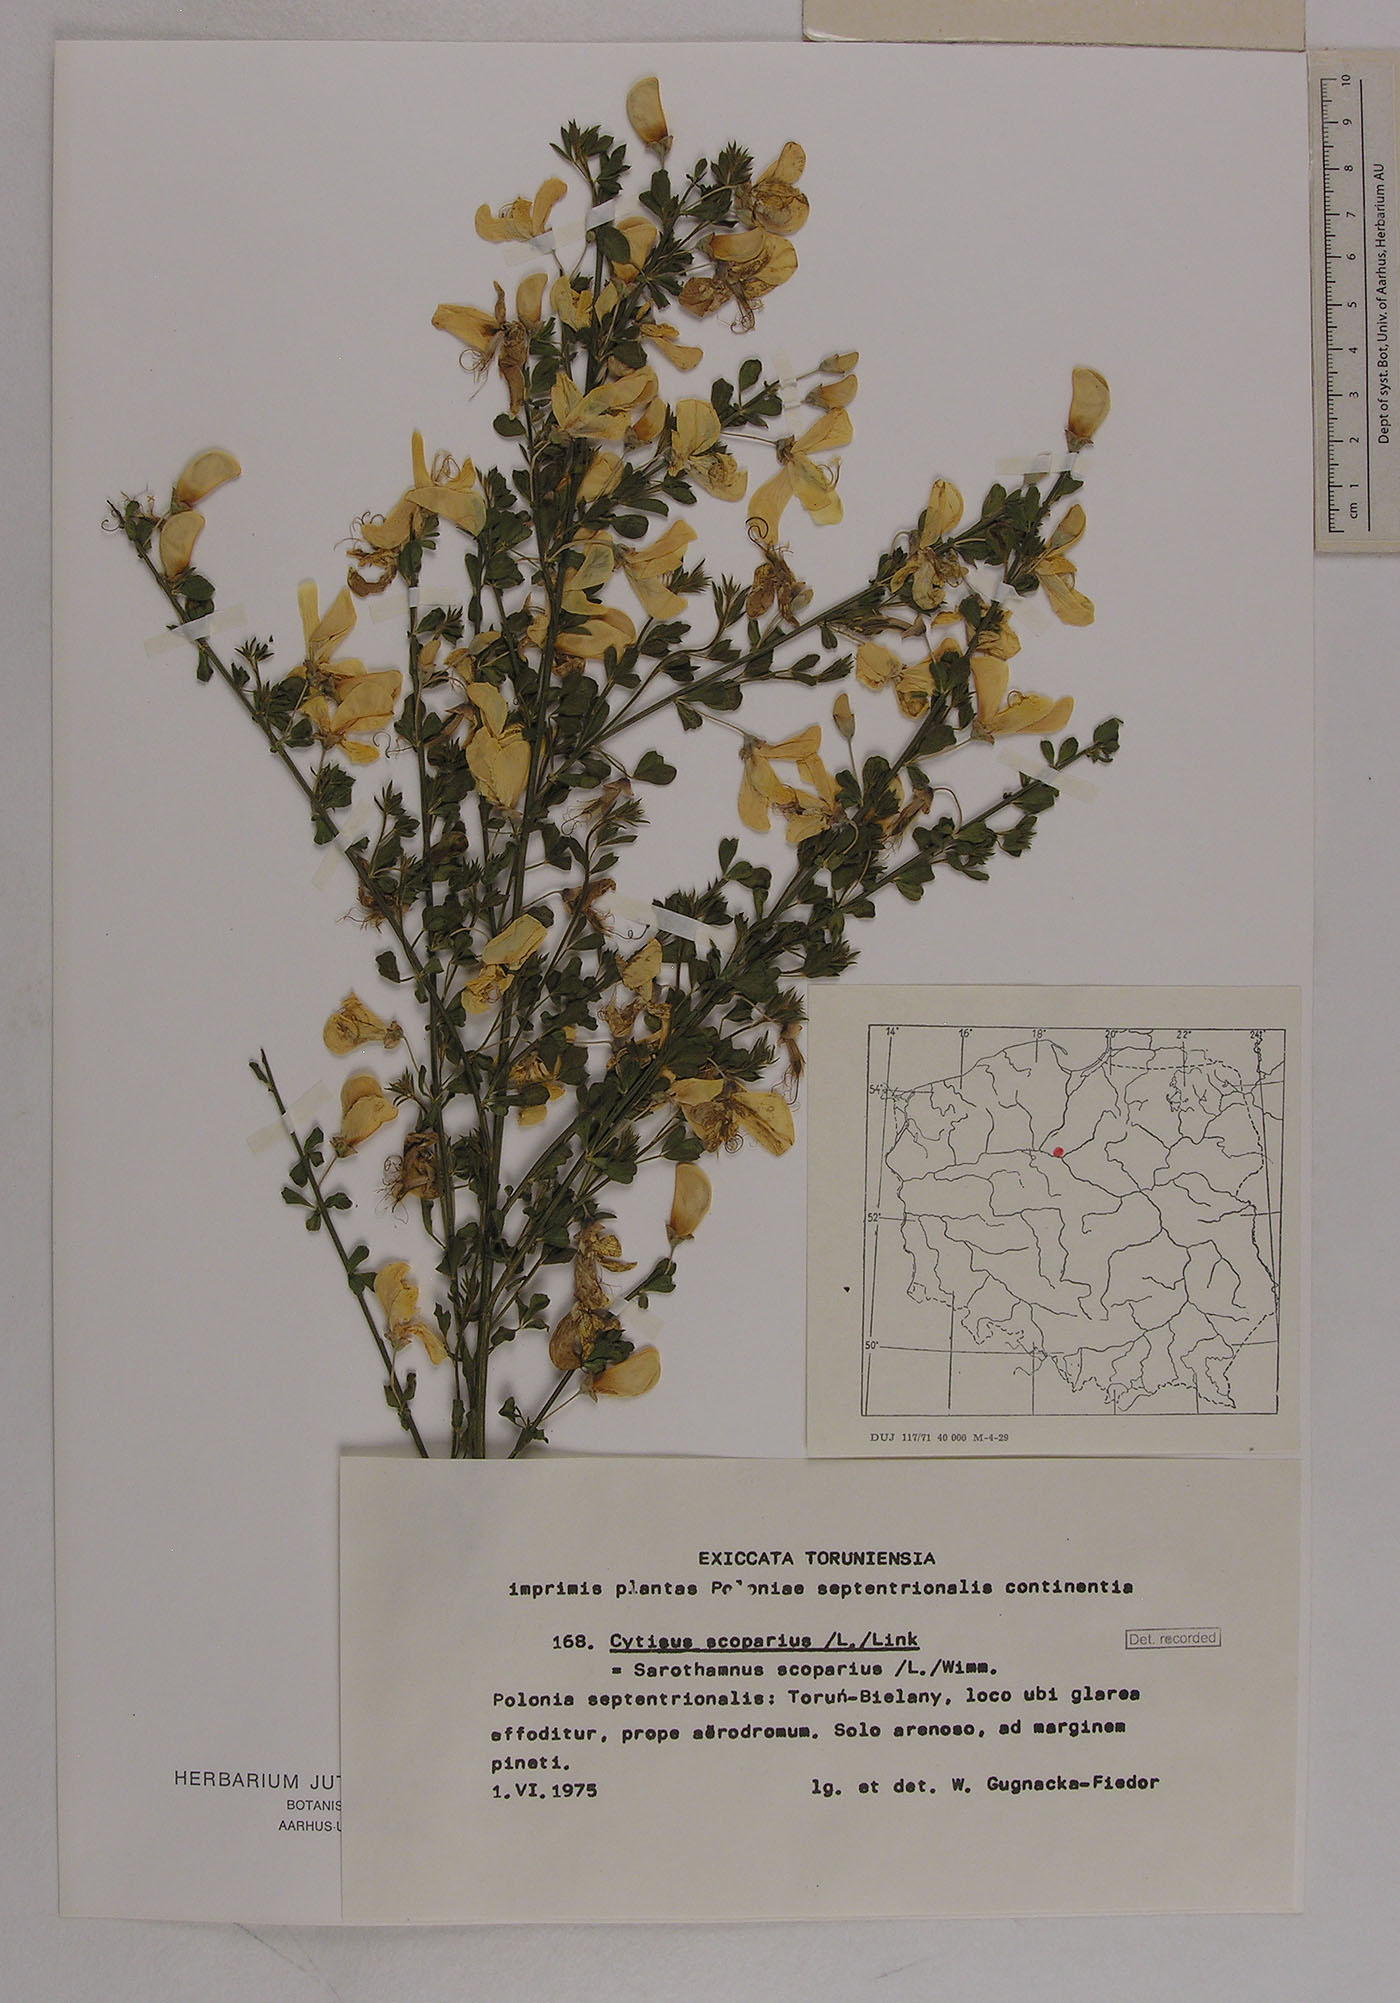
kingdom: Plantae
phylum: Tracheophyta
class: Magnoliopsida
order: Fabales
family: Fabaceae
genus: Cytisus
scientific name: Cytisus scoparius
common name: Scotch broom
